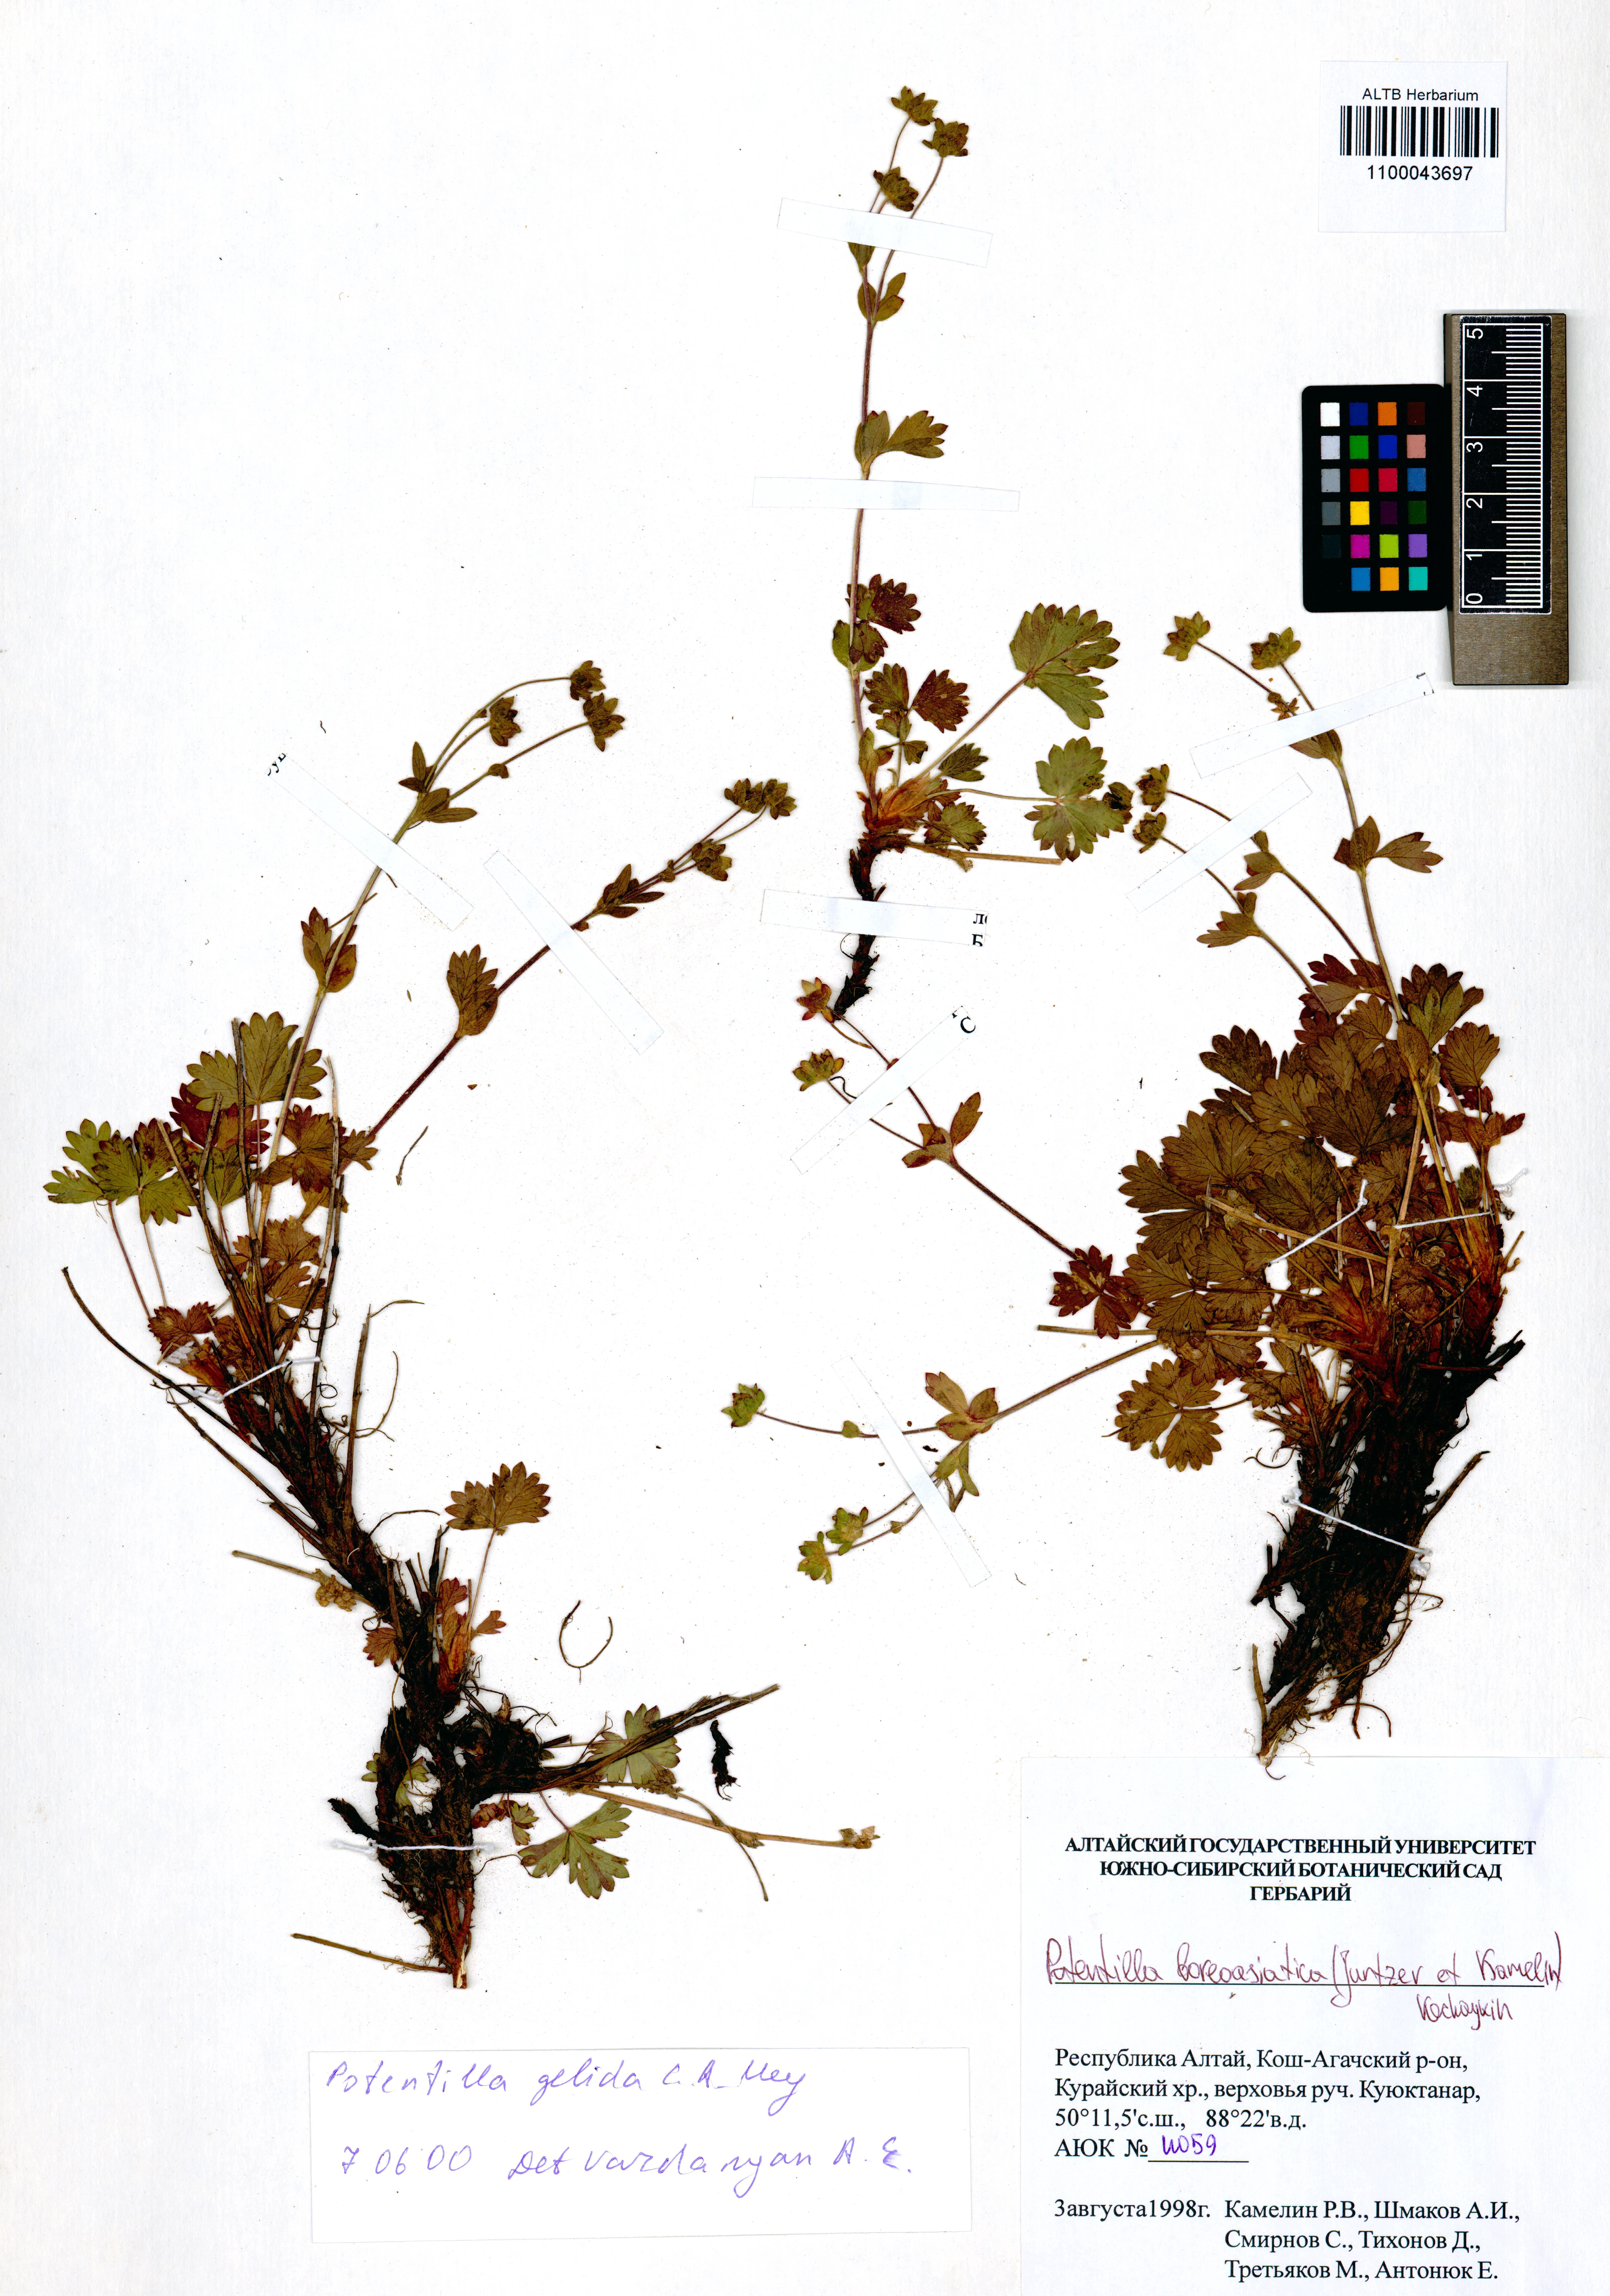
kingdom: Plantae
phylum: Tracheophyta
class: Magnoliopsida
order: Rosales
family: Rosaceae
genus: Potentilla
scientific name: Potentilla
